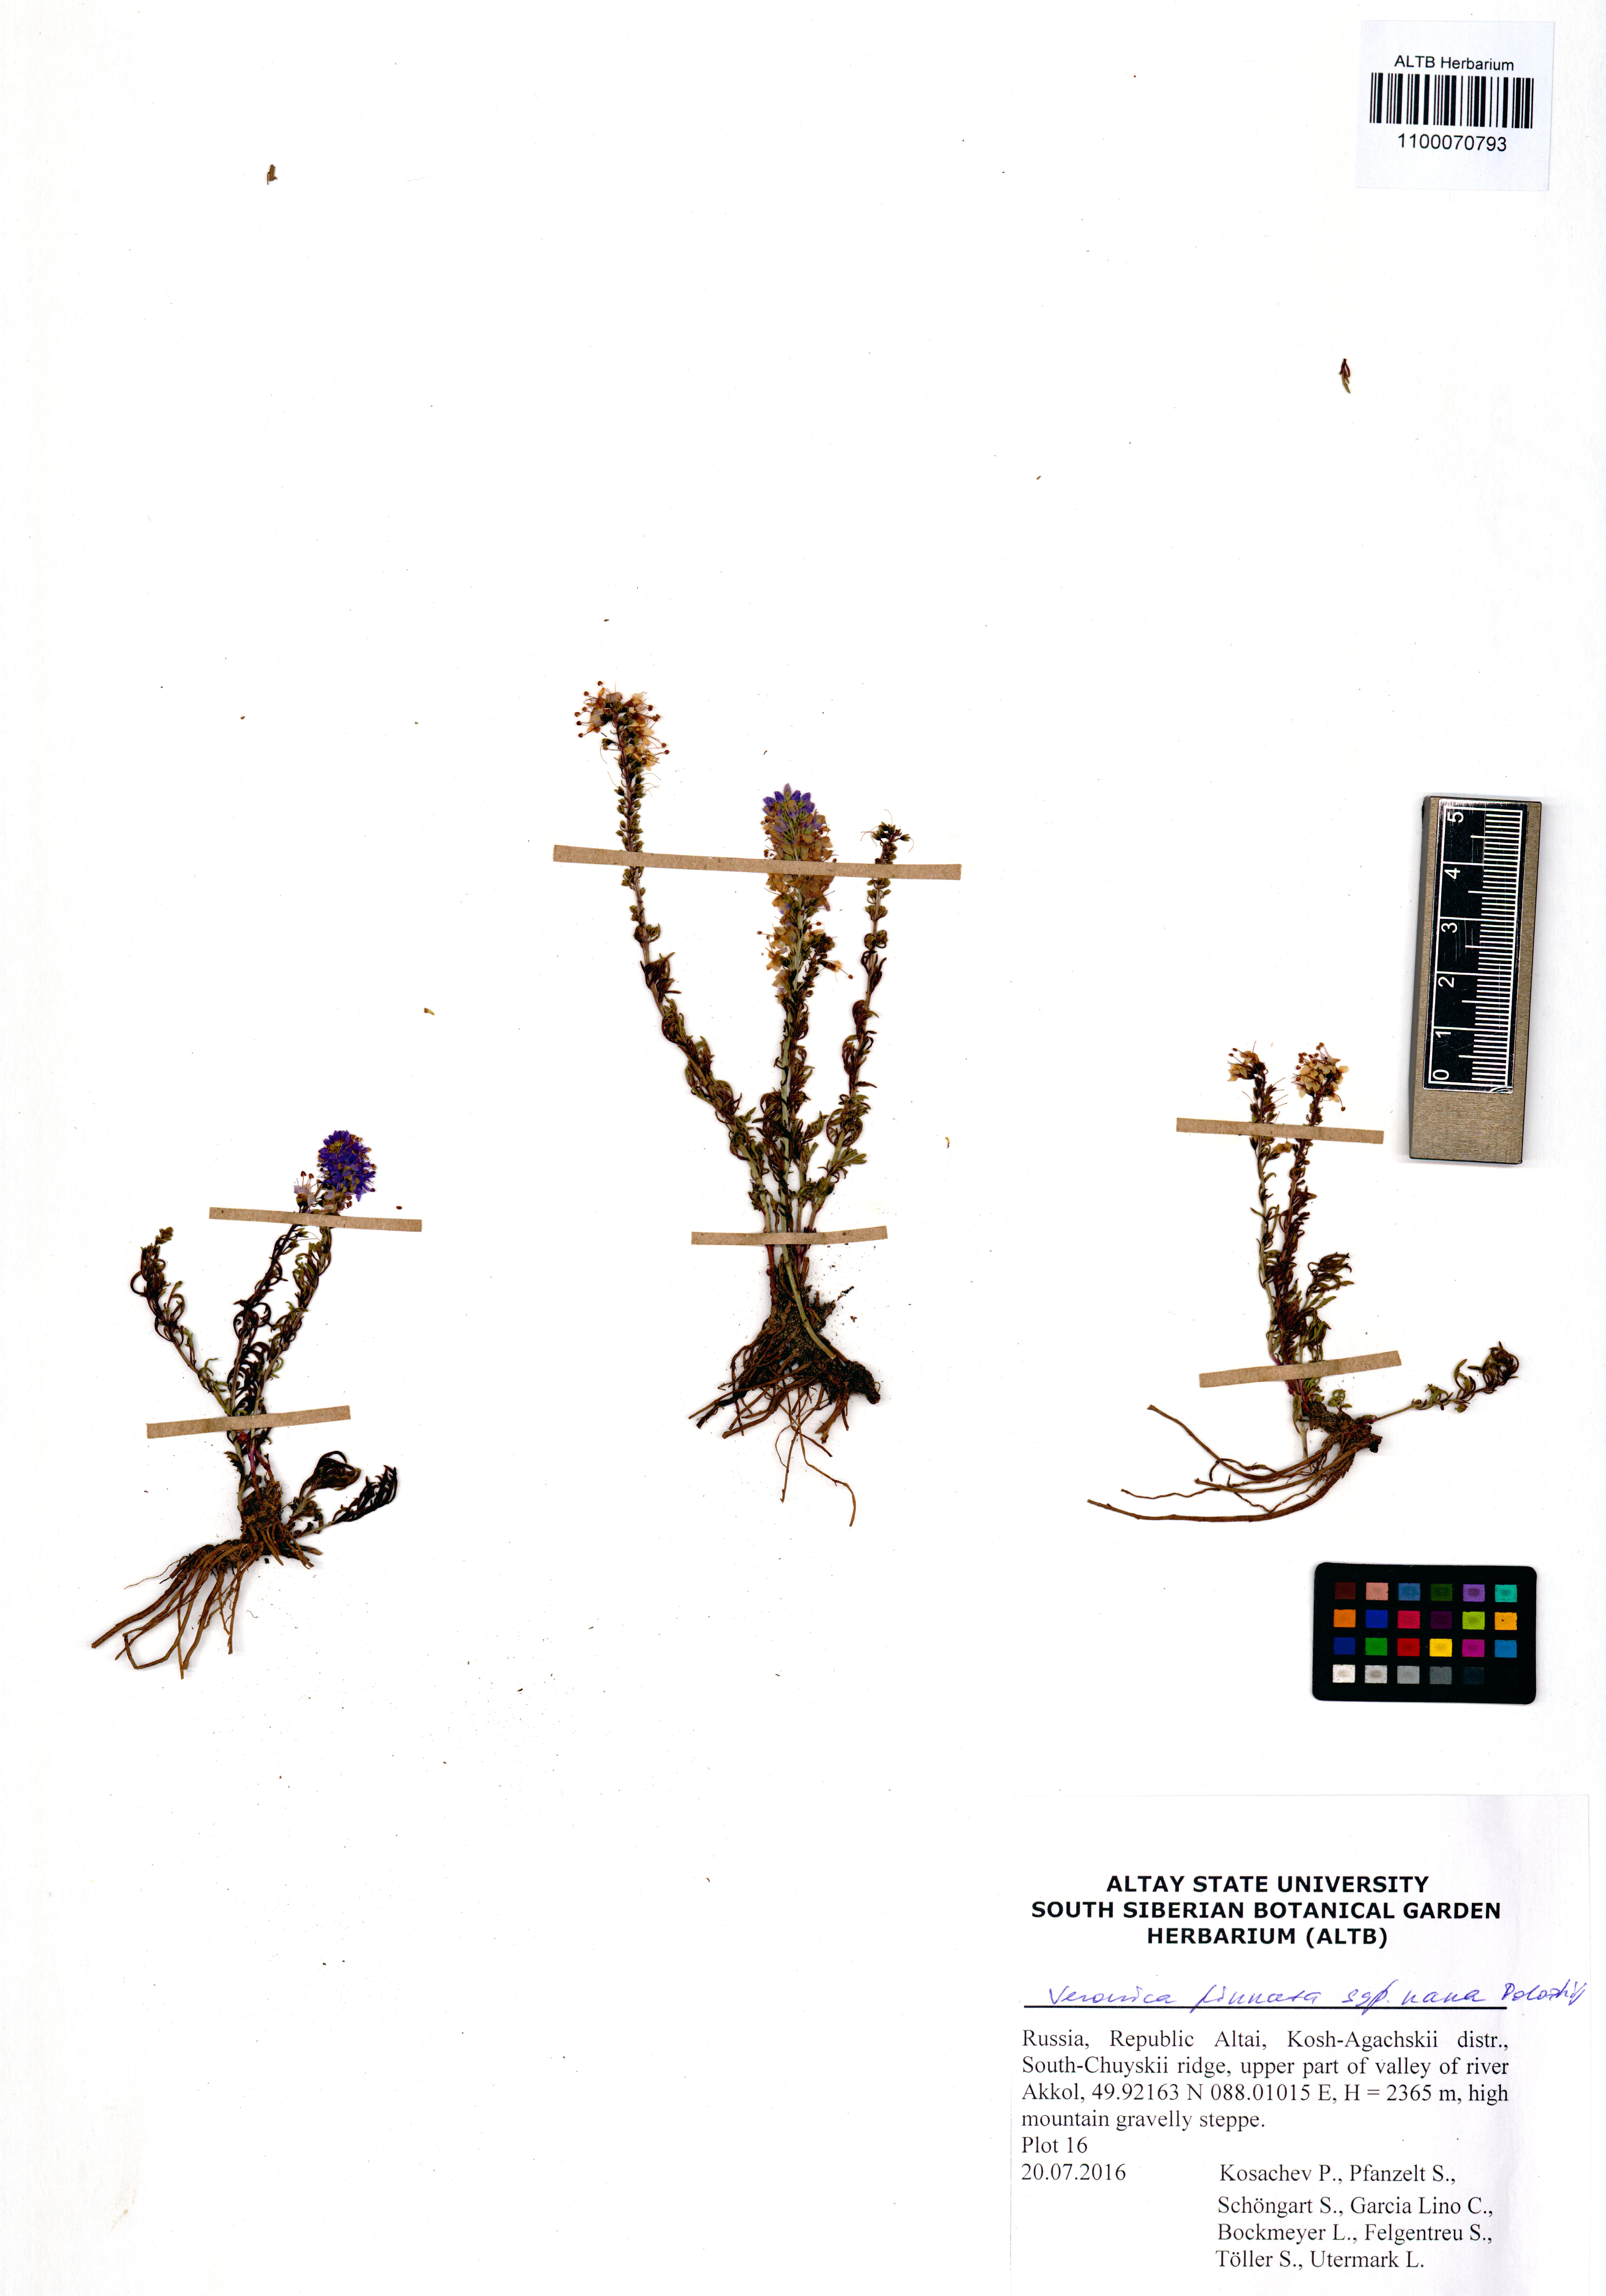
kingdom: Plantae
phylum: Tracheophyta
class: Magnoliopsida
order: Lamiales
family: Plantaginaceae
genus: Veronica
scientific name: Veronica pinnata
